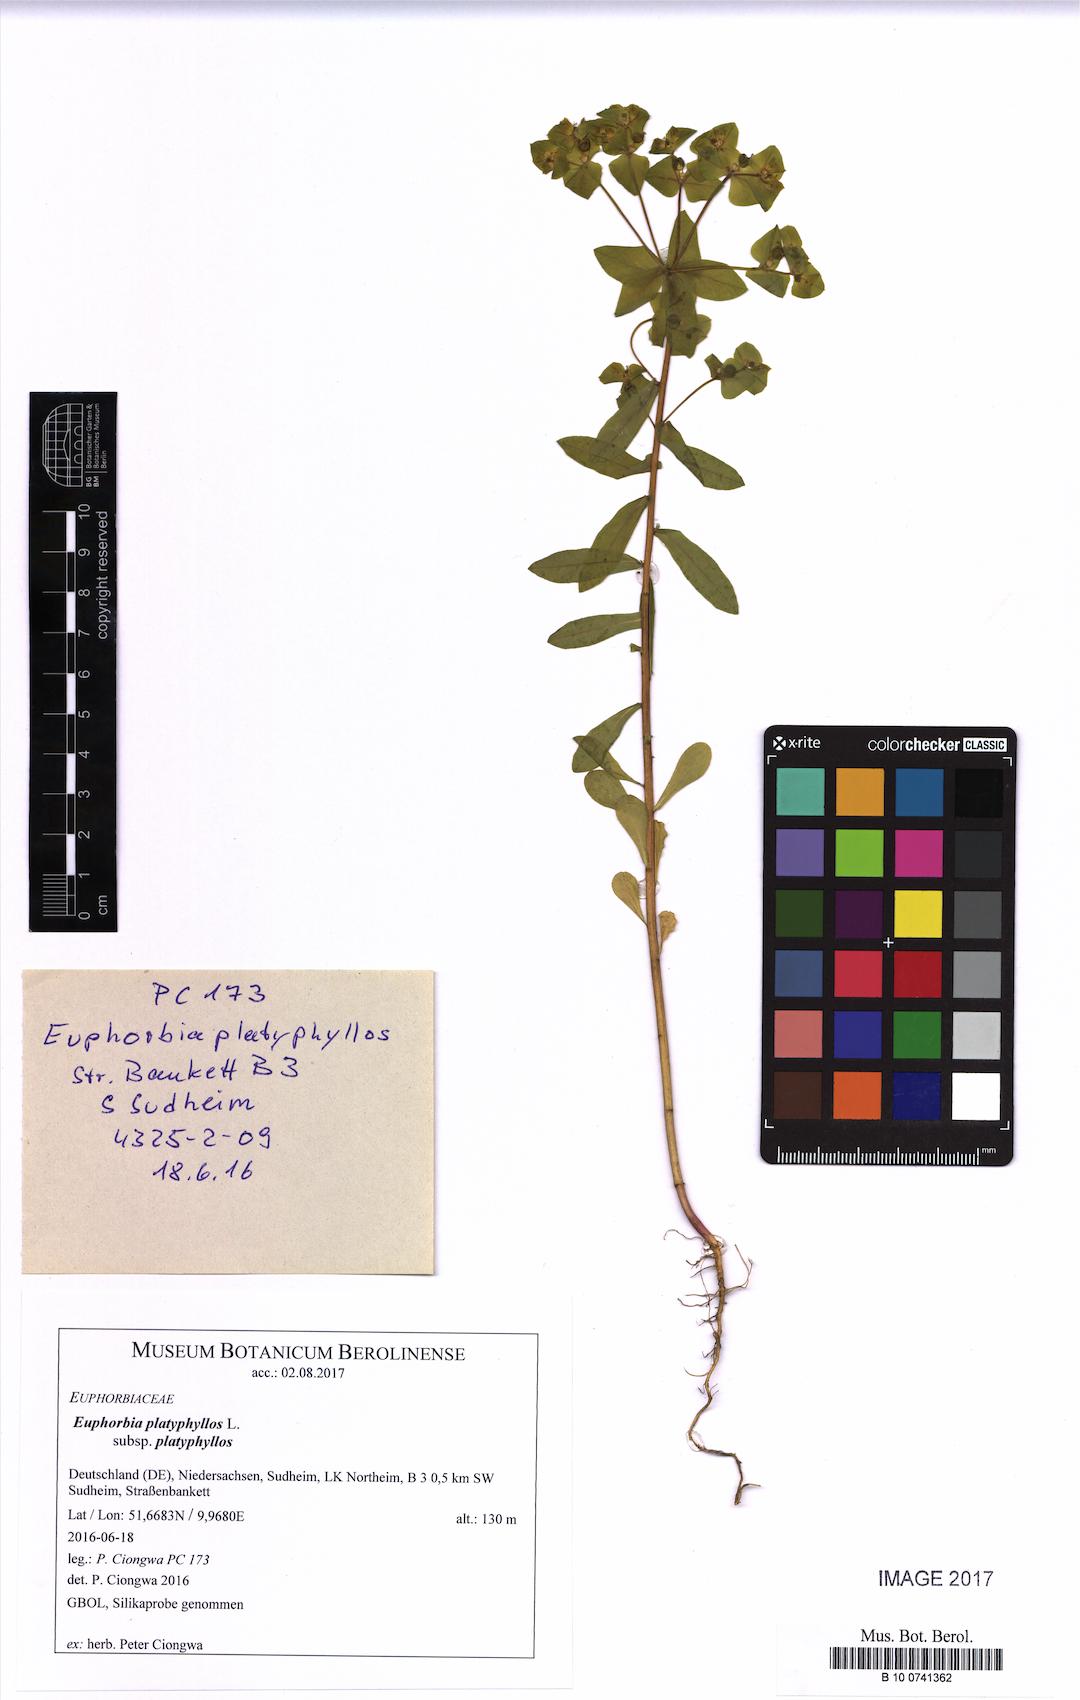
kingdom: Plantae
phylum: Tracheophyta
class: Magnoliopsida
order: Malpighiales
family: Euphorbiaceae
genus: Euphorbia
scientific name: Euphorbia platyphyllos
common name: Broad-leaved spurge
